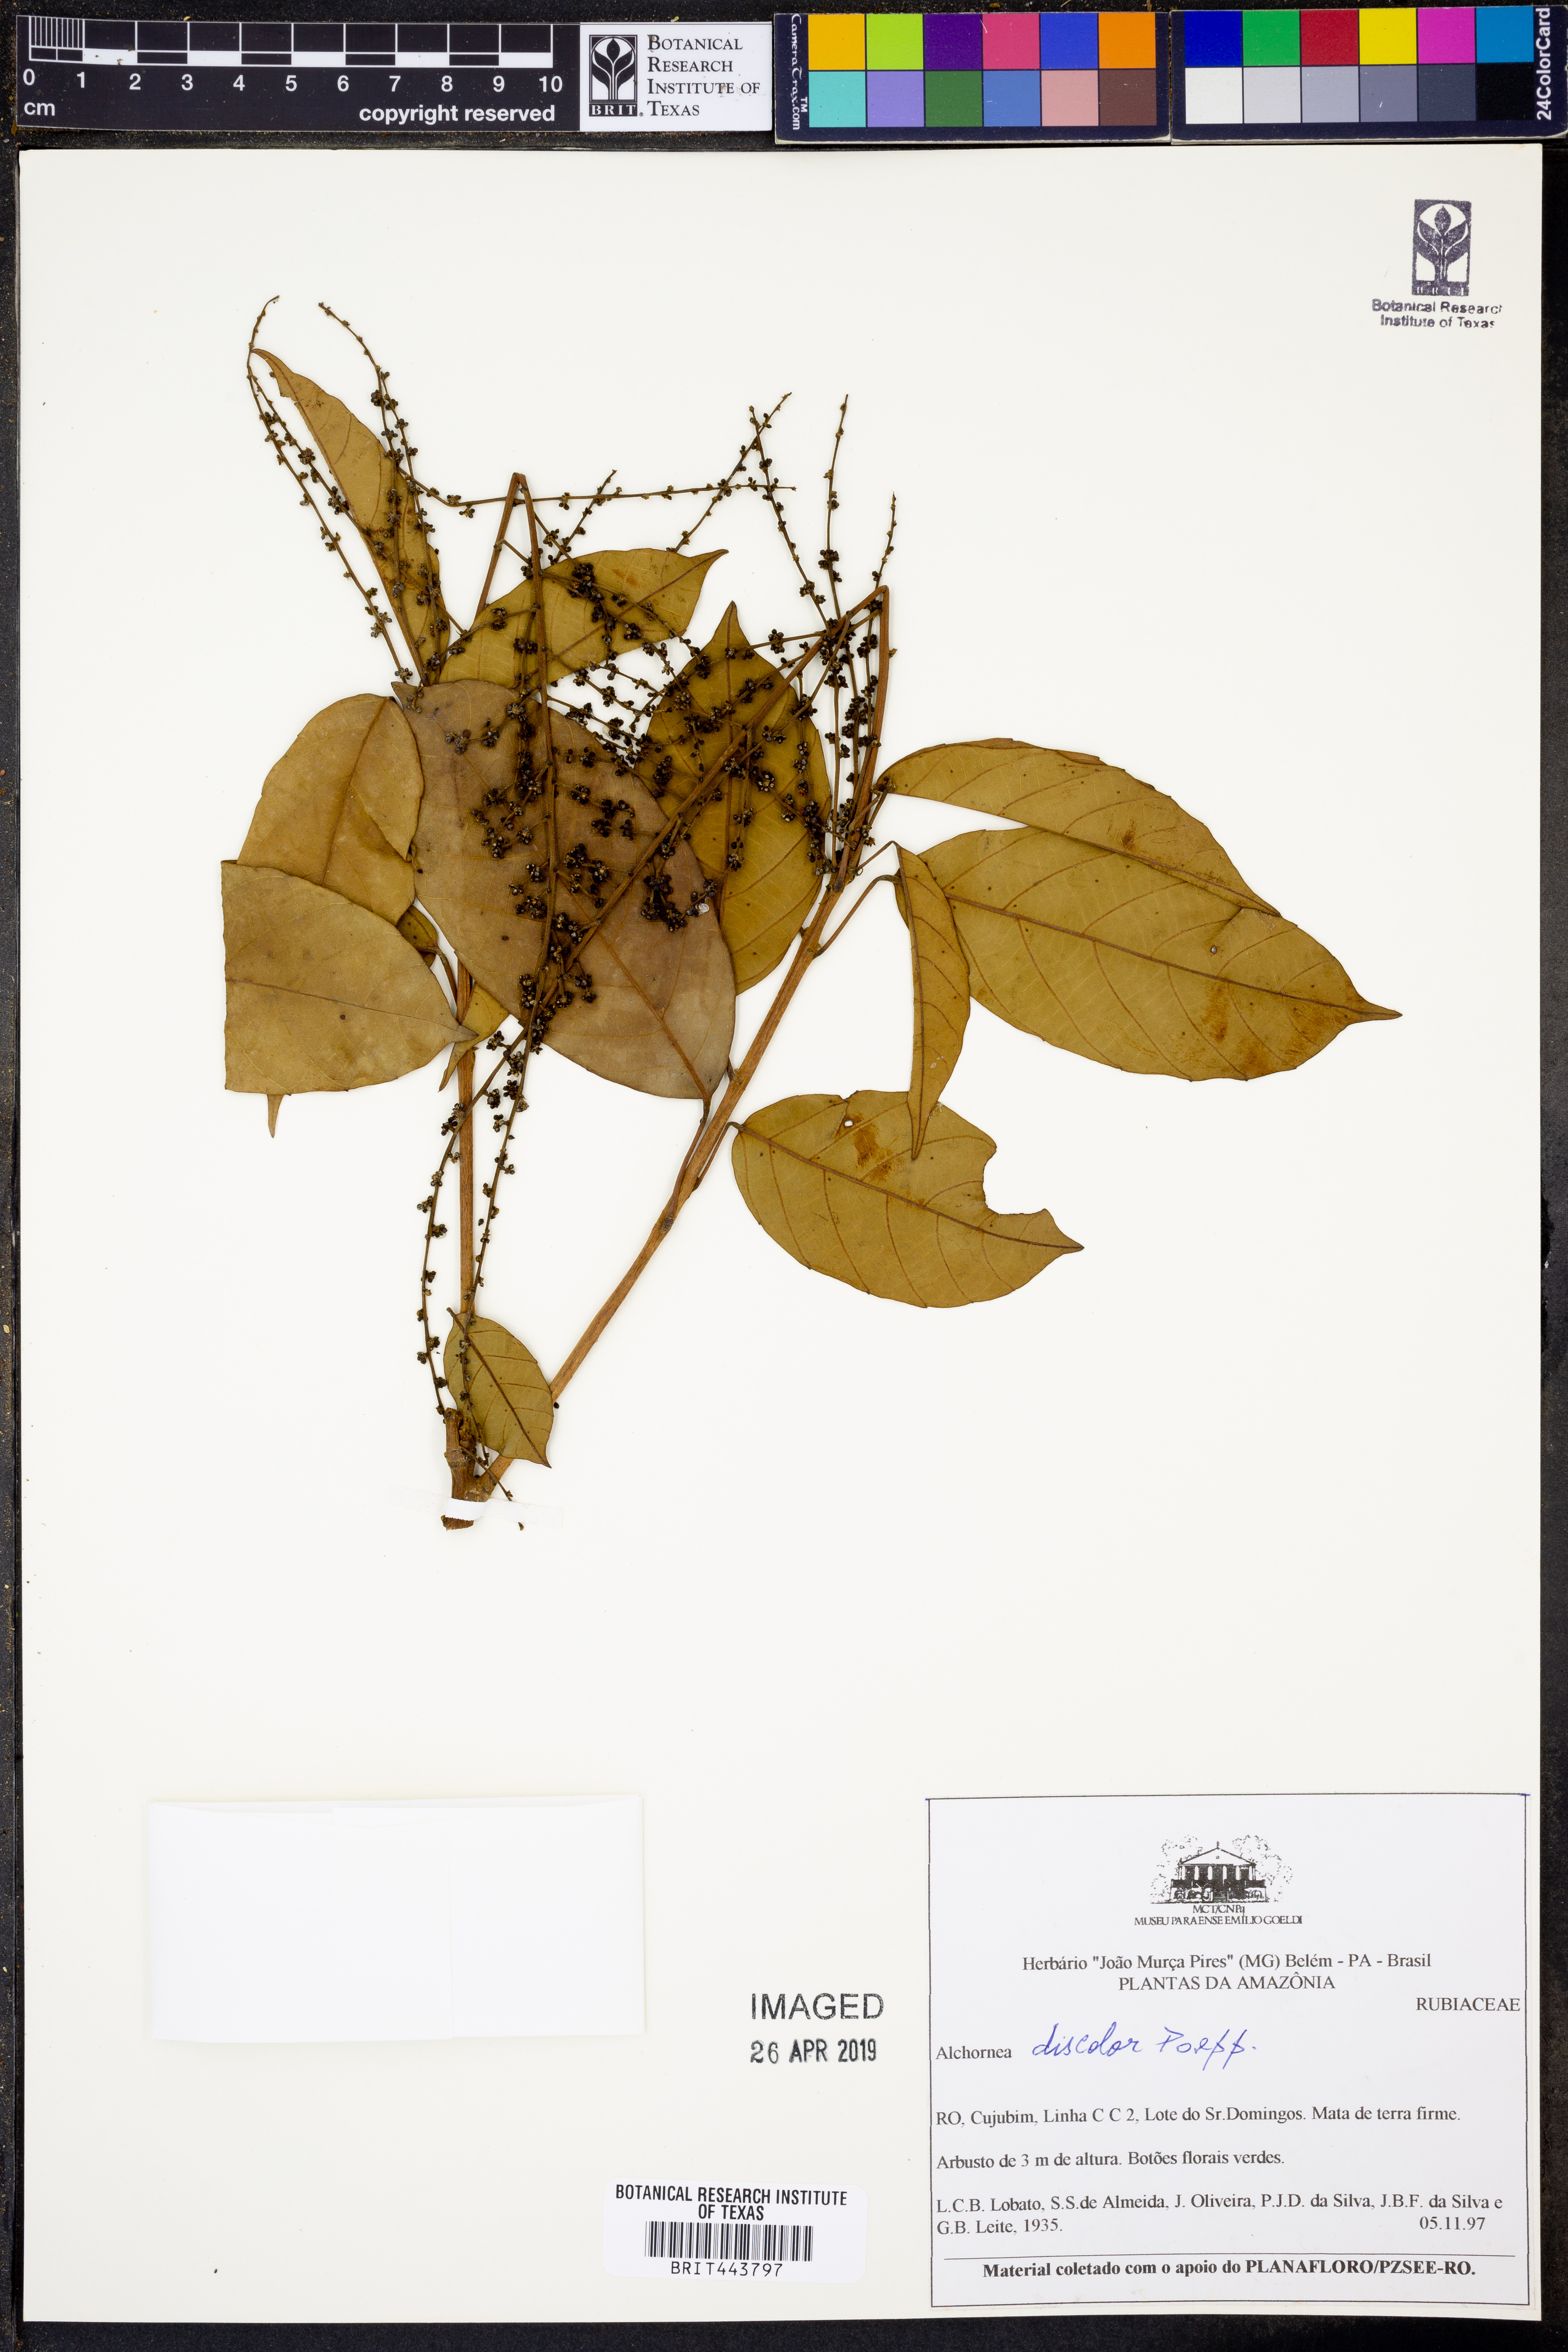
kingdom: Plantae
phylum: Tracheophyta
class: Magnoliopsida
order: Malpighiales
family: Euphorbiaceae
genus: Alchornea
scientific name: Alchornea discolor
